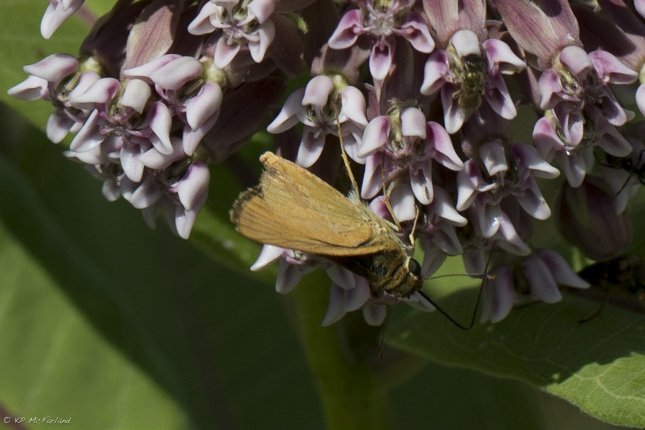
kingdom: Animalia
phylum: Arthropoda
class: Insecta
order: Lepidoptera
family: Hesperiidae
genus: Thymelicus
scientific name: Thymelicus lineola
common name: European Skipper
